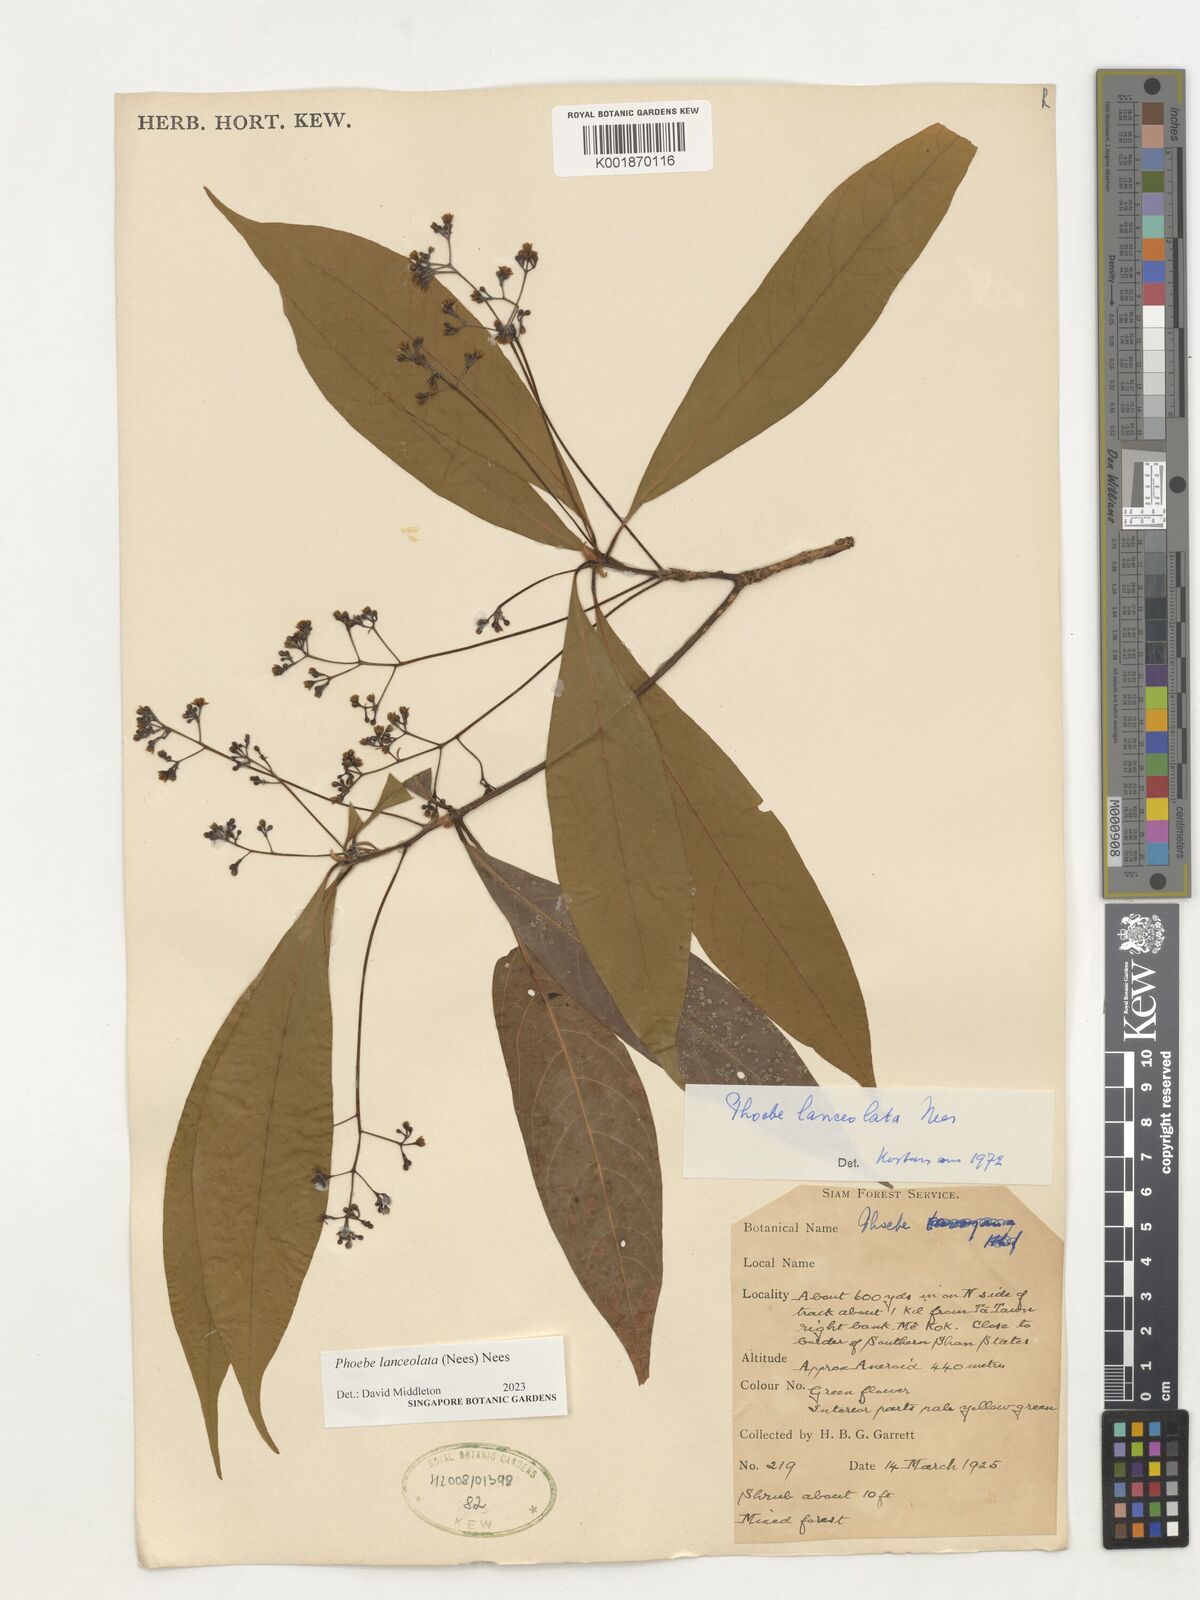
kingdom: Plantae
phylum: Tracheophyta
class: Magnoliopsida
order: Laurales
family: Lauraceae
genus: Phoebe
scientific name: Phoebe lanceolata
